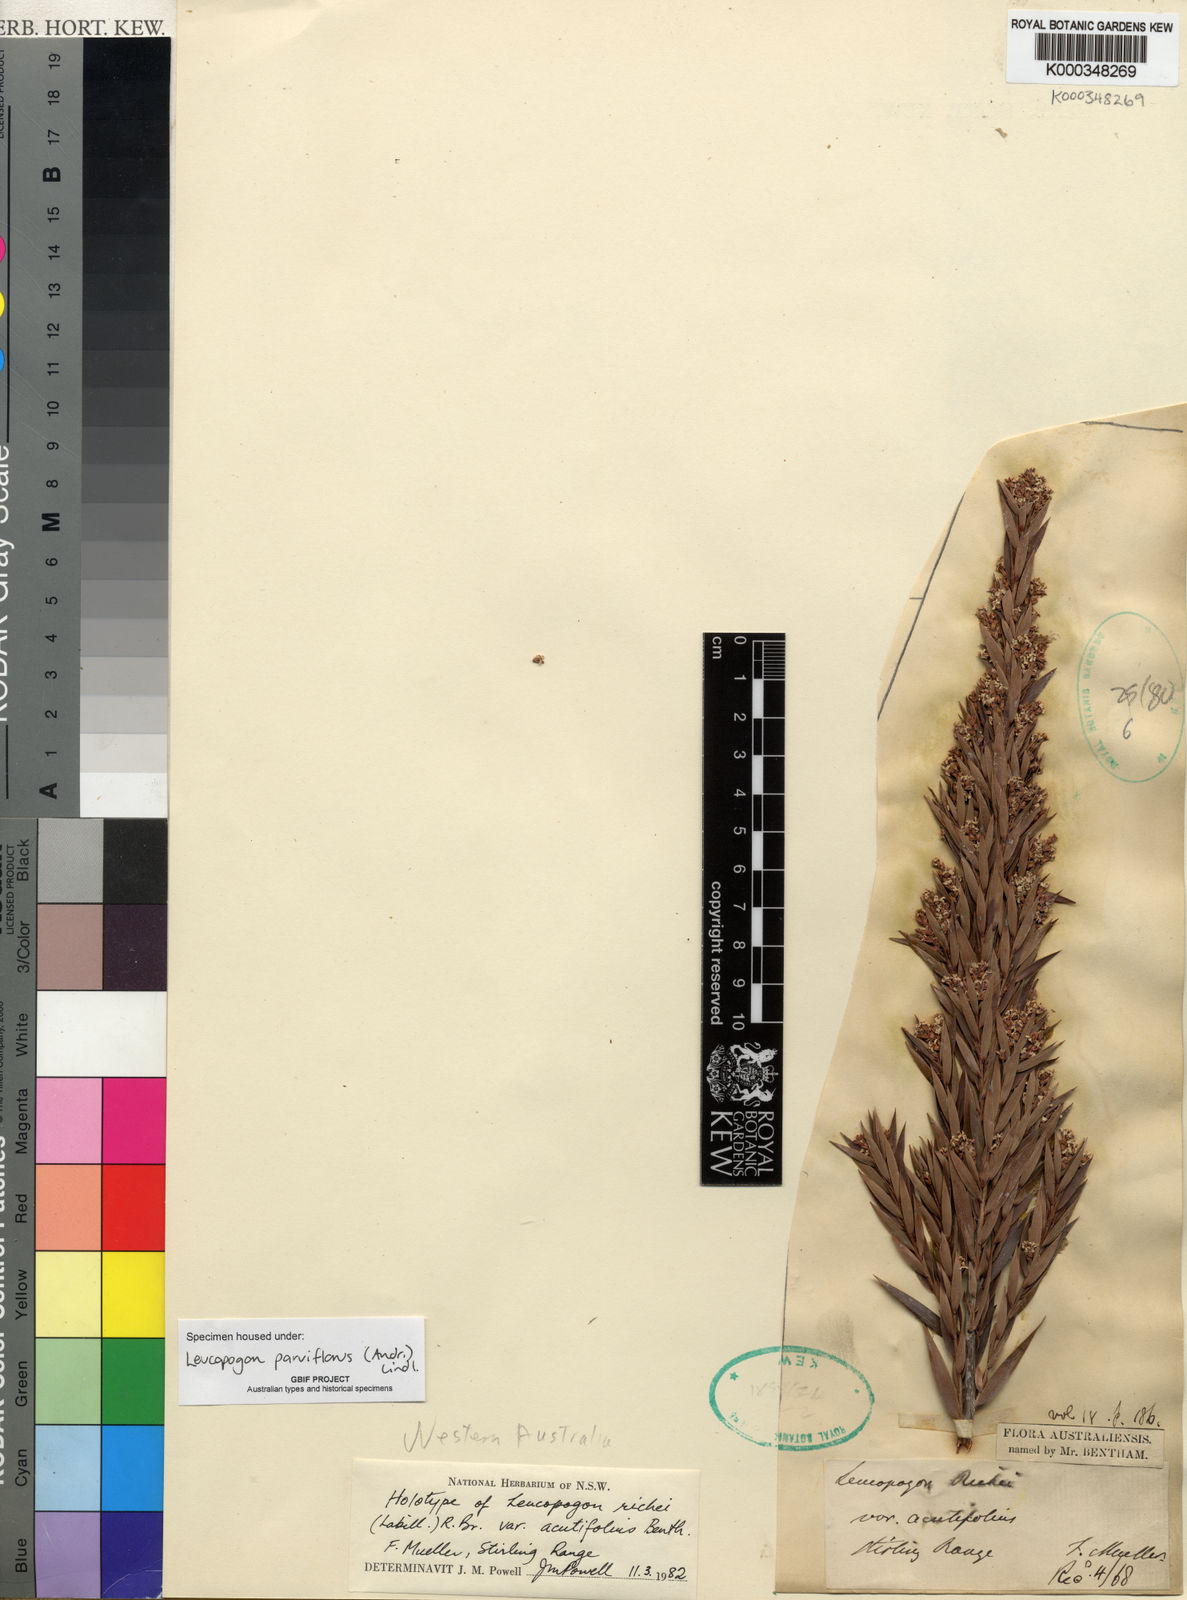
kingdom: Plantae
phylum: Tracheophyta
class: Magnoliopsida
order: Ericales
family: Ericaceae
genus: Leptecophylla
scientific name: Leptecophylla parvifolia
